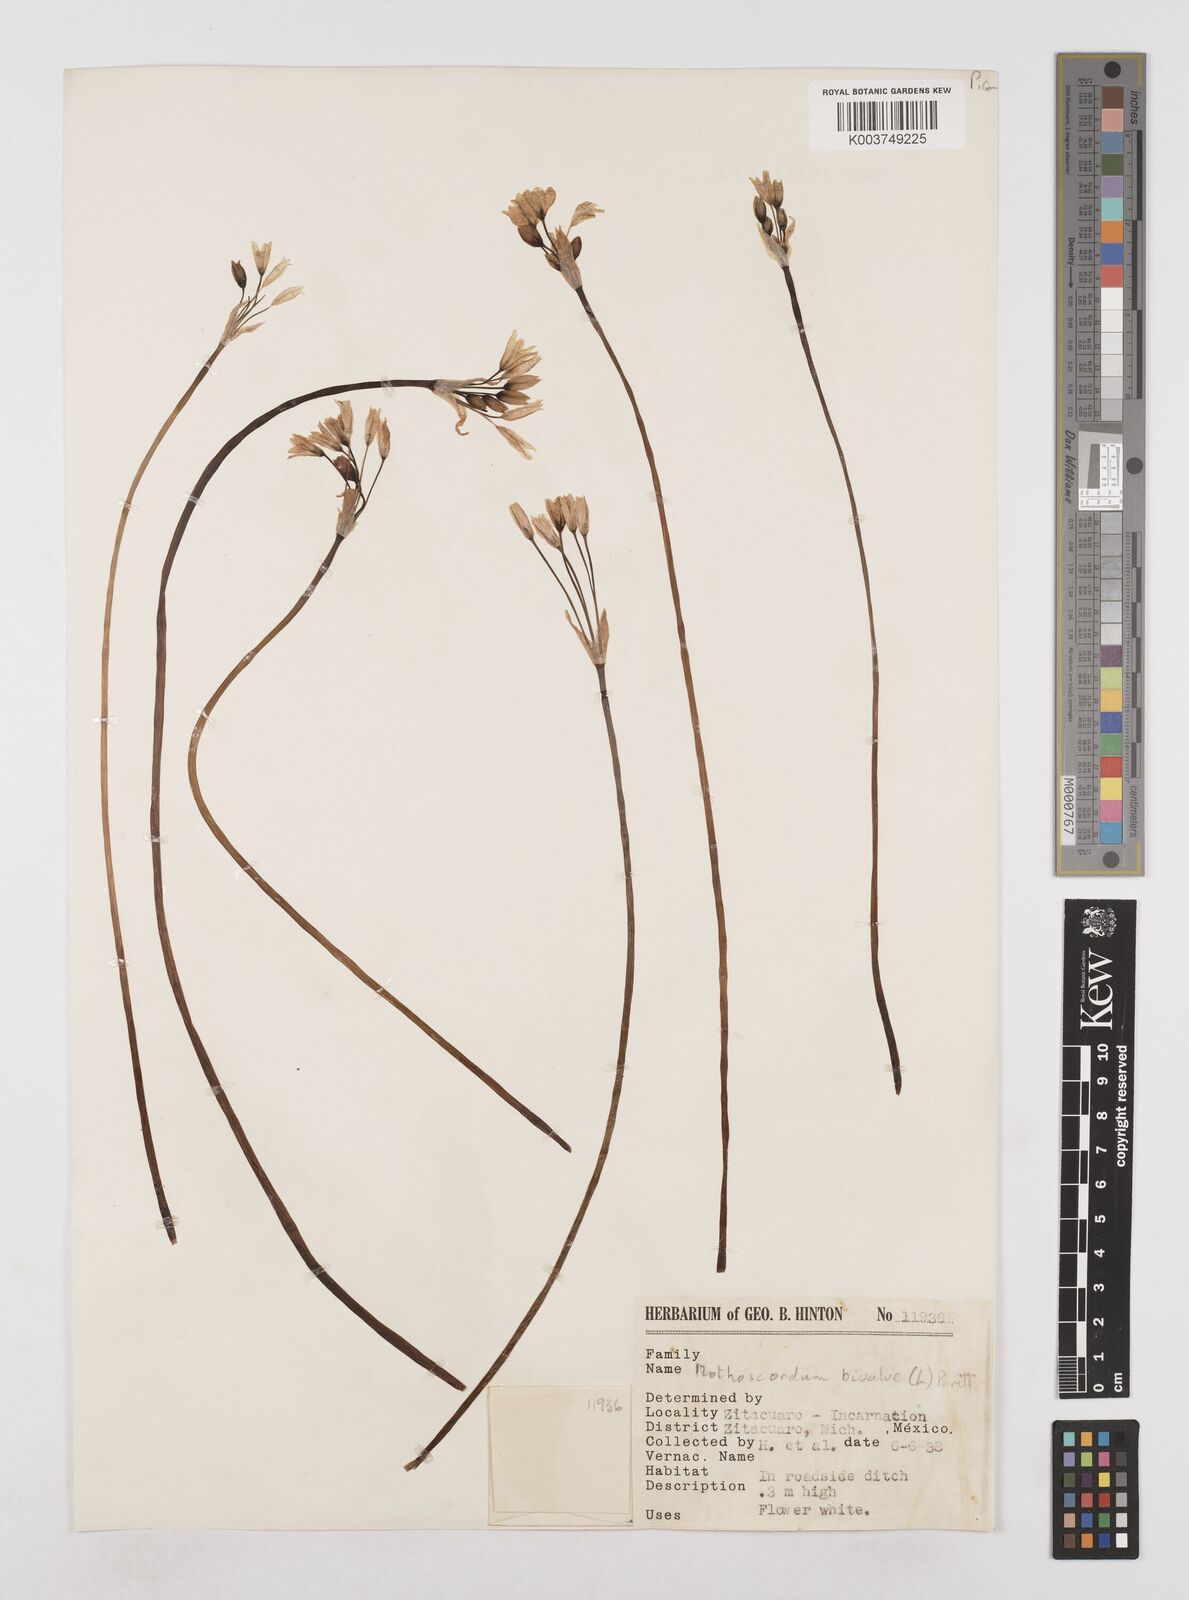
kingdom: Plantae
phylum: Tracheophyta
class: Liliopsida
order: Asparagales
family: Amaryllidaceae
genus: Nothoscordum
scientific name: Nothoscordum bivalve
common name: Crow-poison
